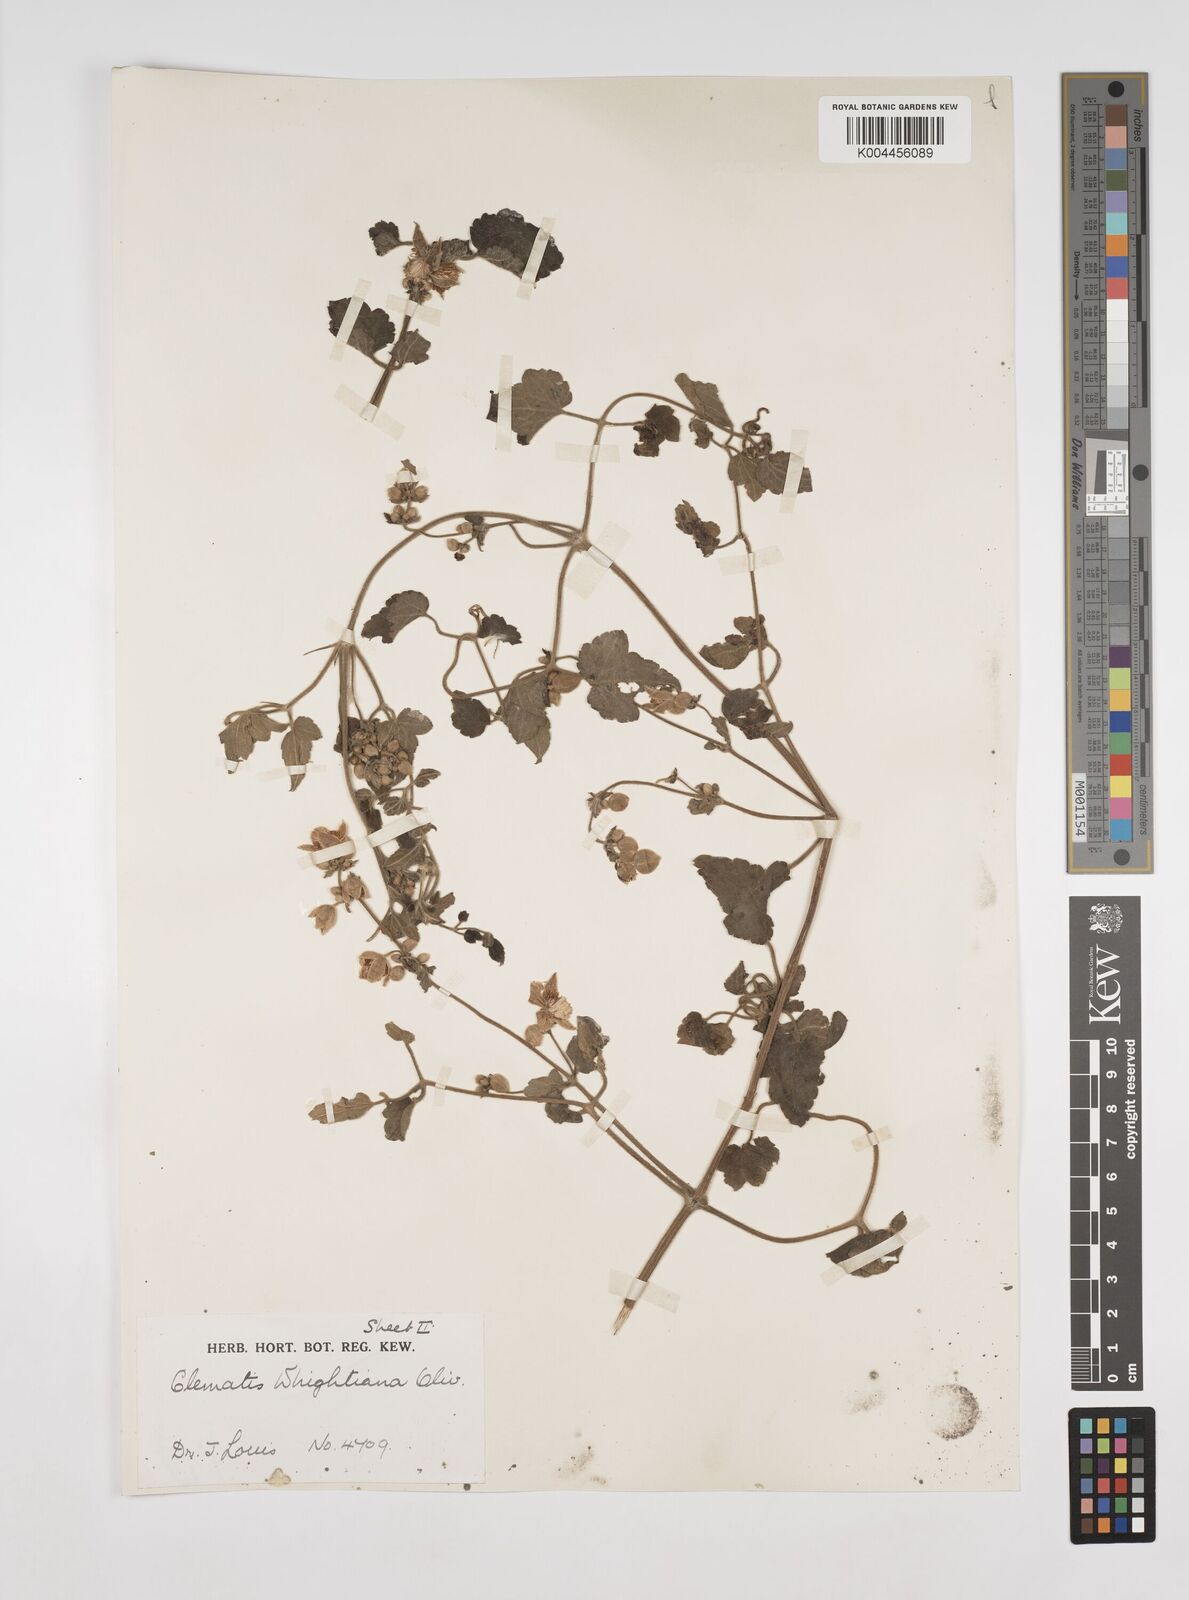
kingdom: Plantae
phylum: Tracheophyta
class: Magnoliopsida
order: Ranunculales
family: Ranunculaceae
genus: Clematis
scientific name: Clematis orientalis
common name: Oriental virgin's-bower
